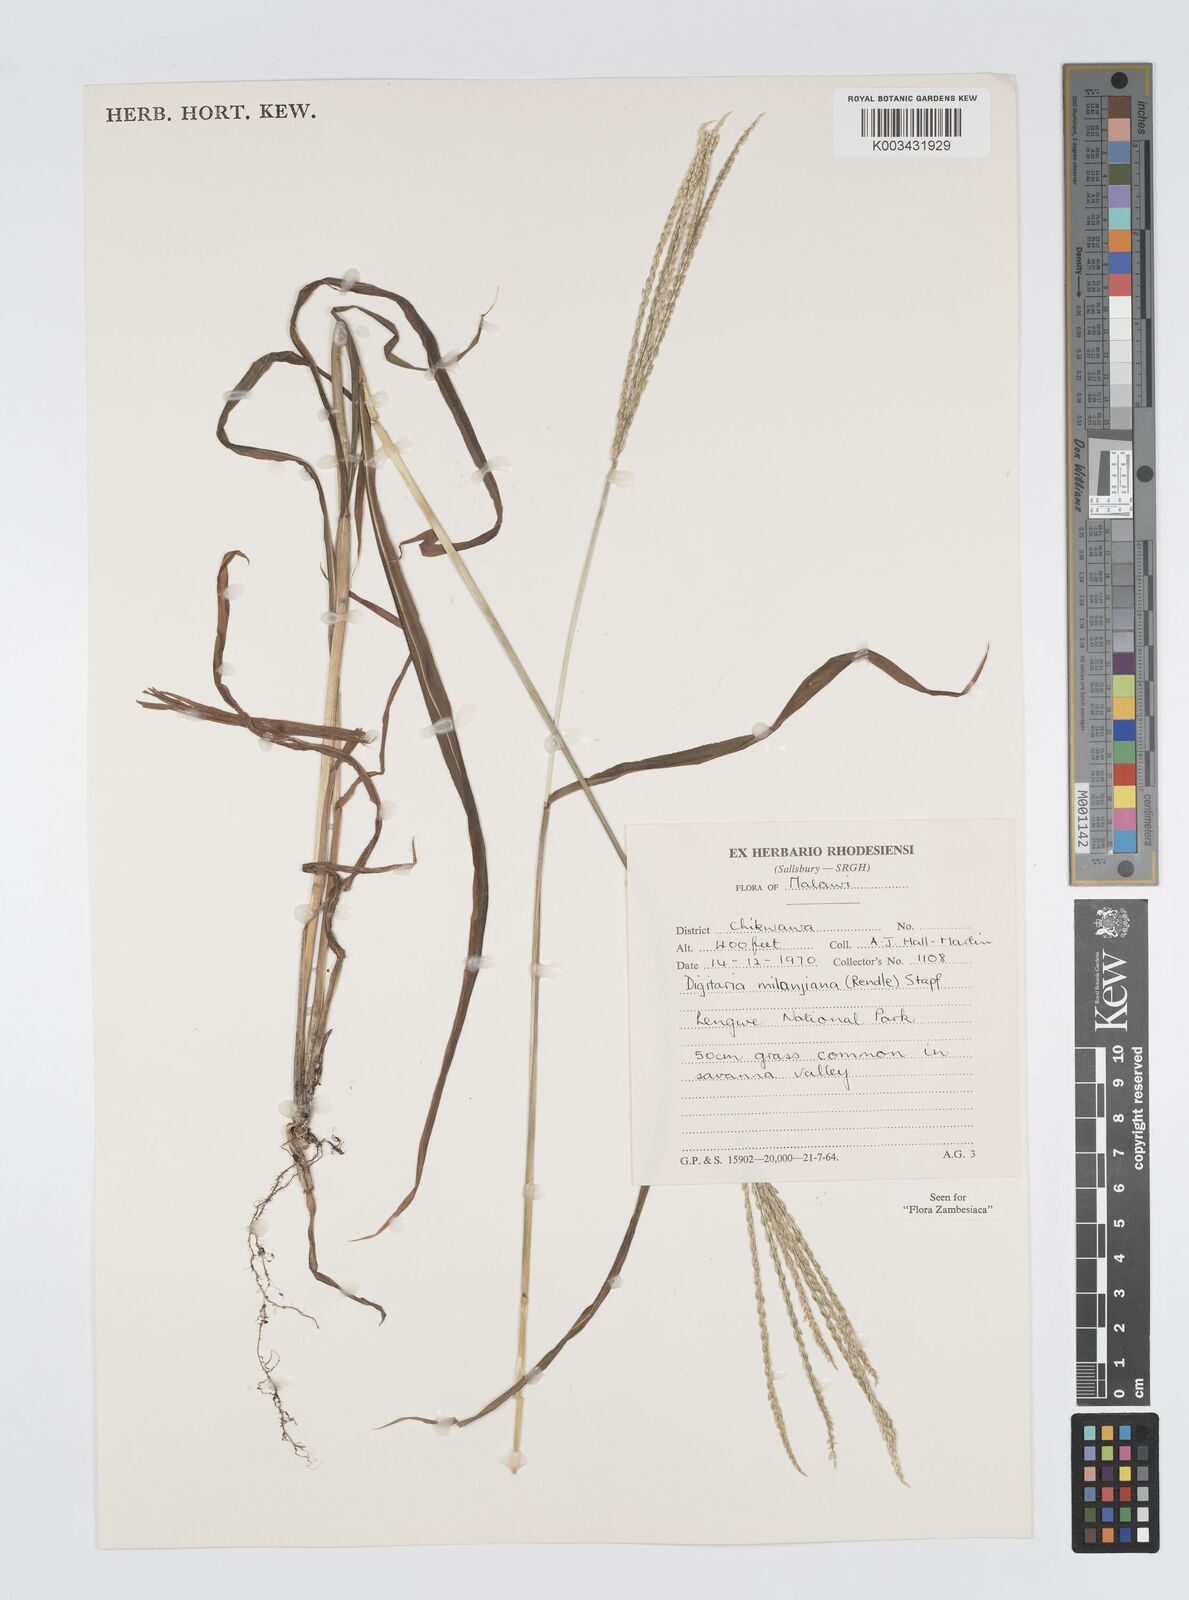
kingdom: Plantae
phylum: Tracheophyta
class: Liliopsida
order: Poales
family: Poaceae
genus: Digitaria
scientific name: Digitaria milanjiana
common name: Madagascar crabgrass
